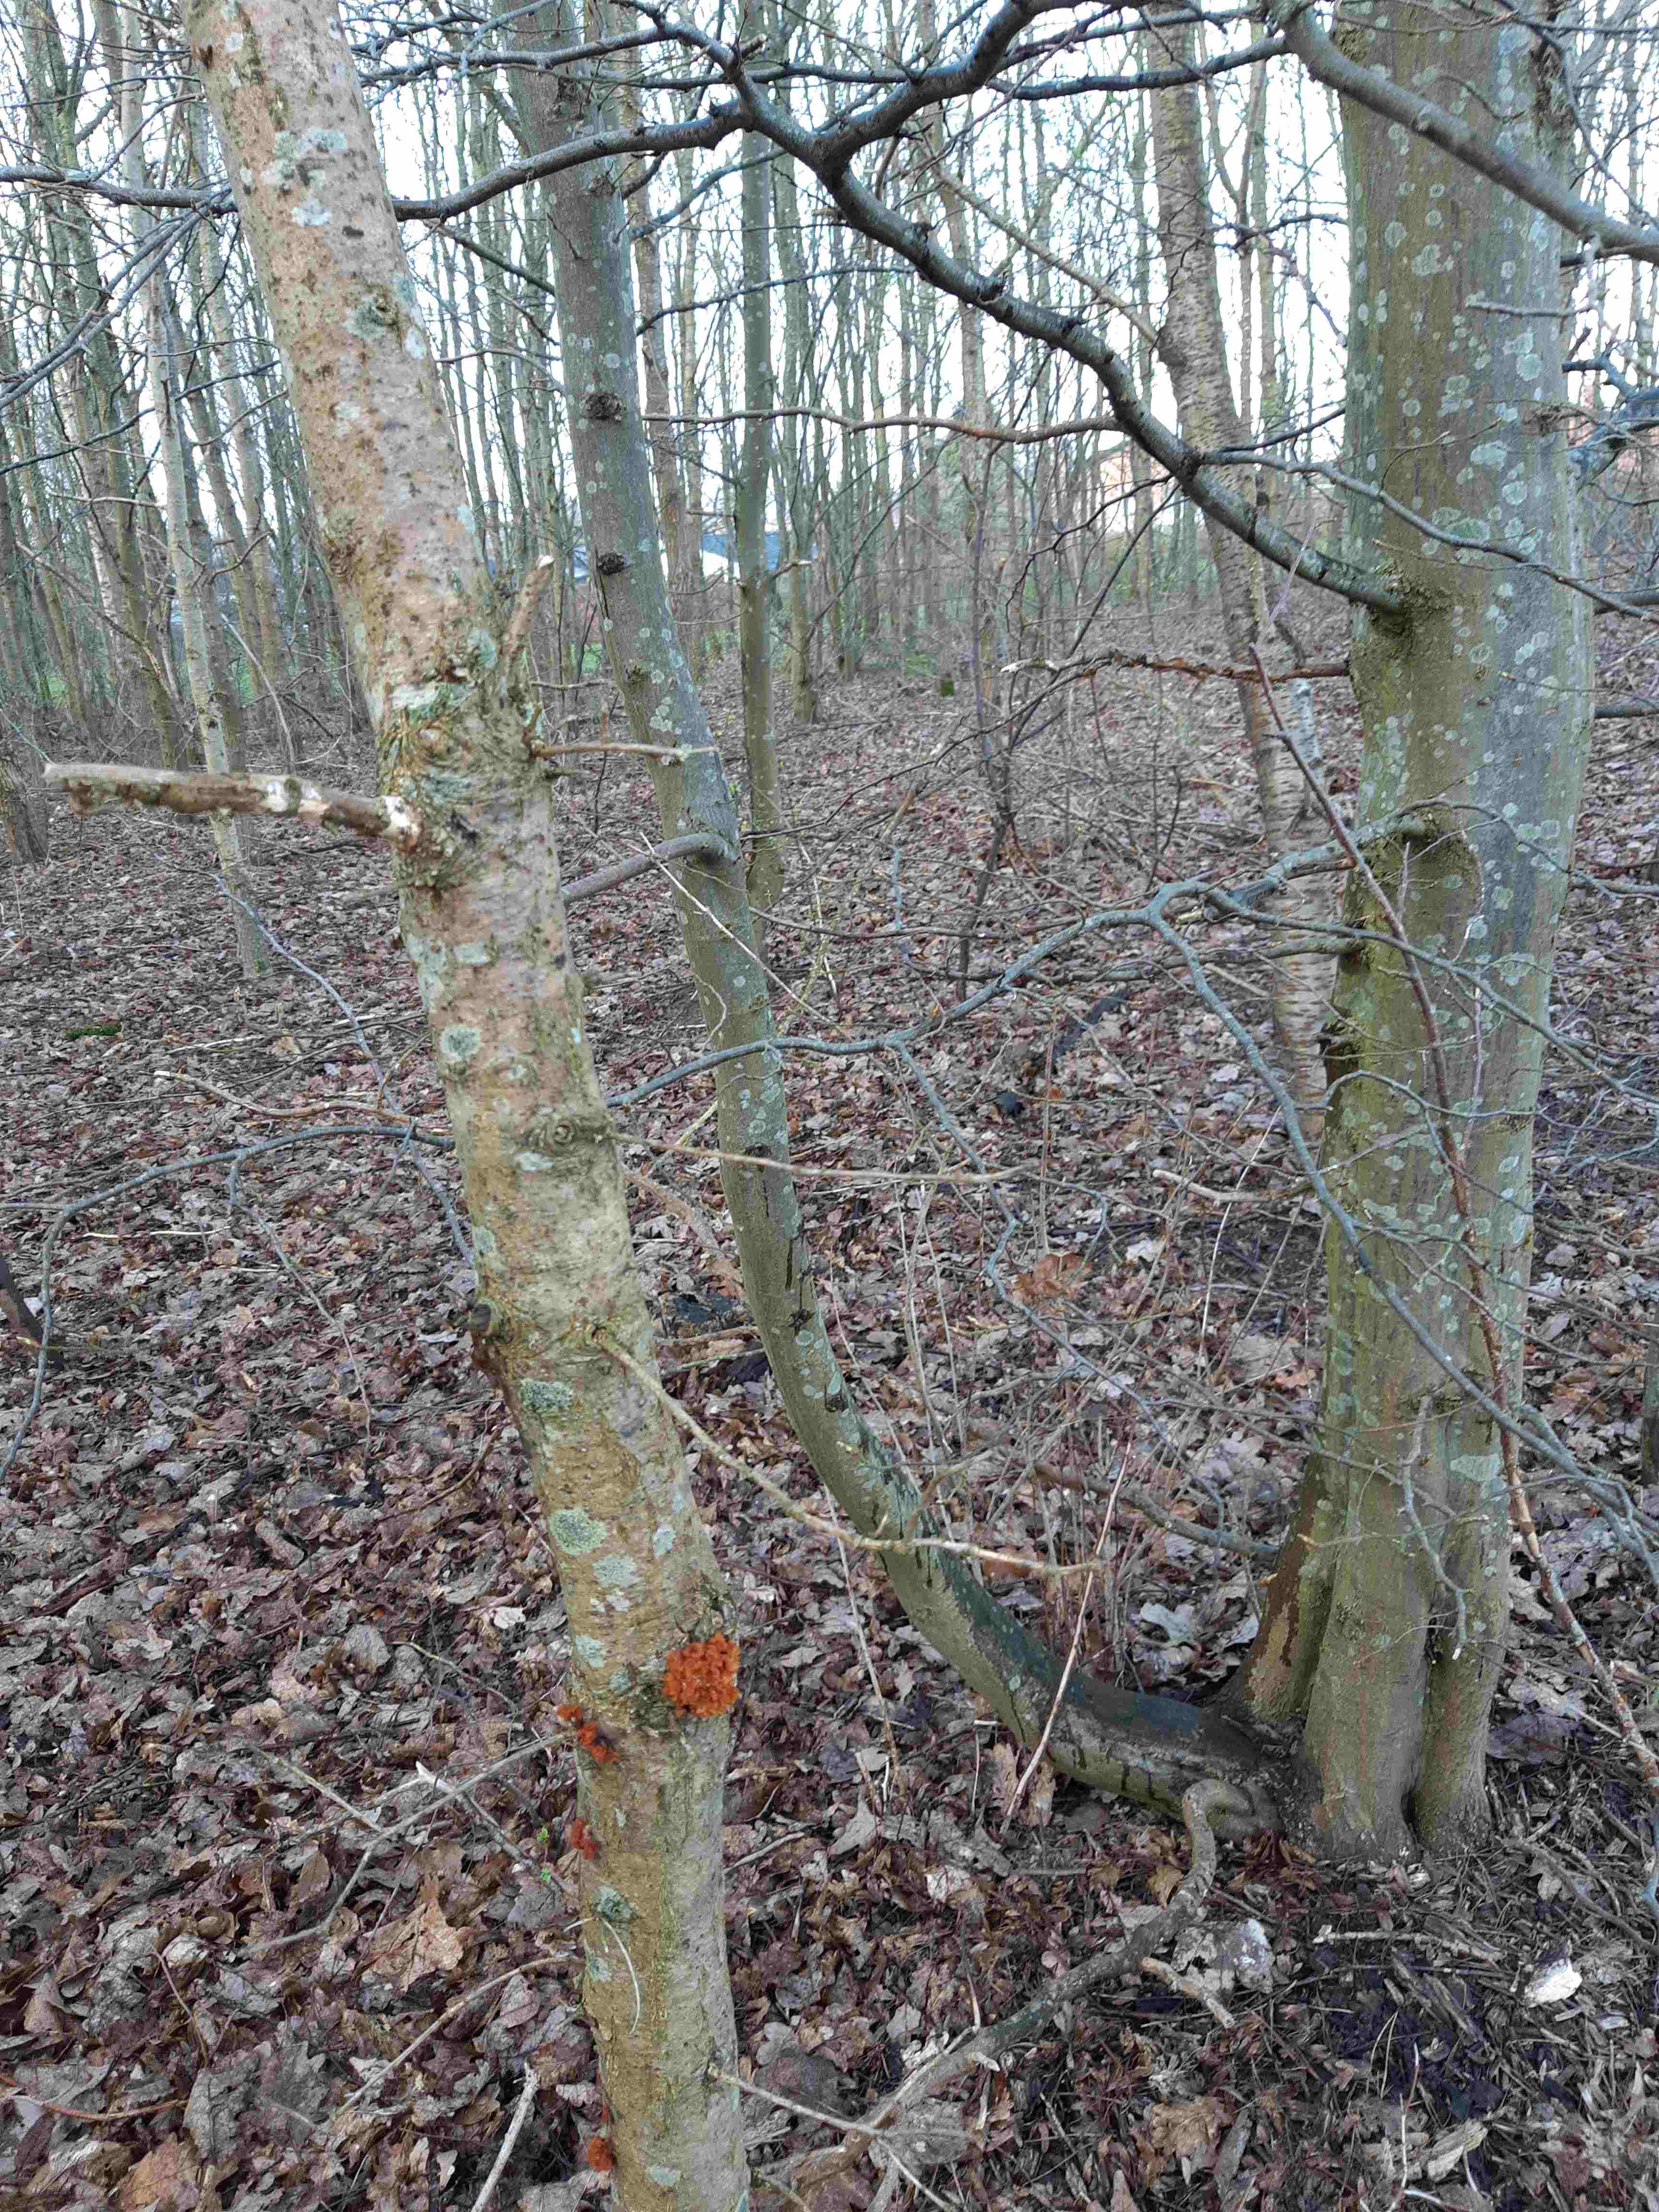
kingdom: Fungi
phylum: Basidiomycota
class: Tremellomycetes
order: Tremellales
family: Tremellaceae
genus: Phaeotremella
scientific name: Phaeotremella frondosa
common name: kæmpe-bævresvamp
